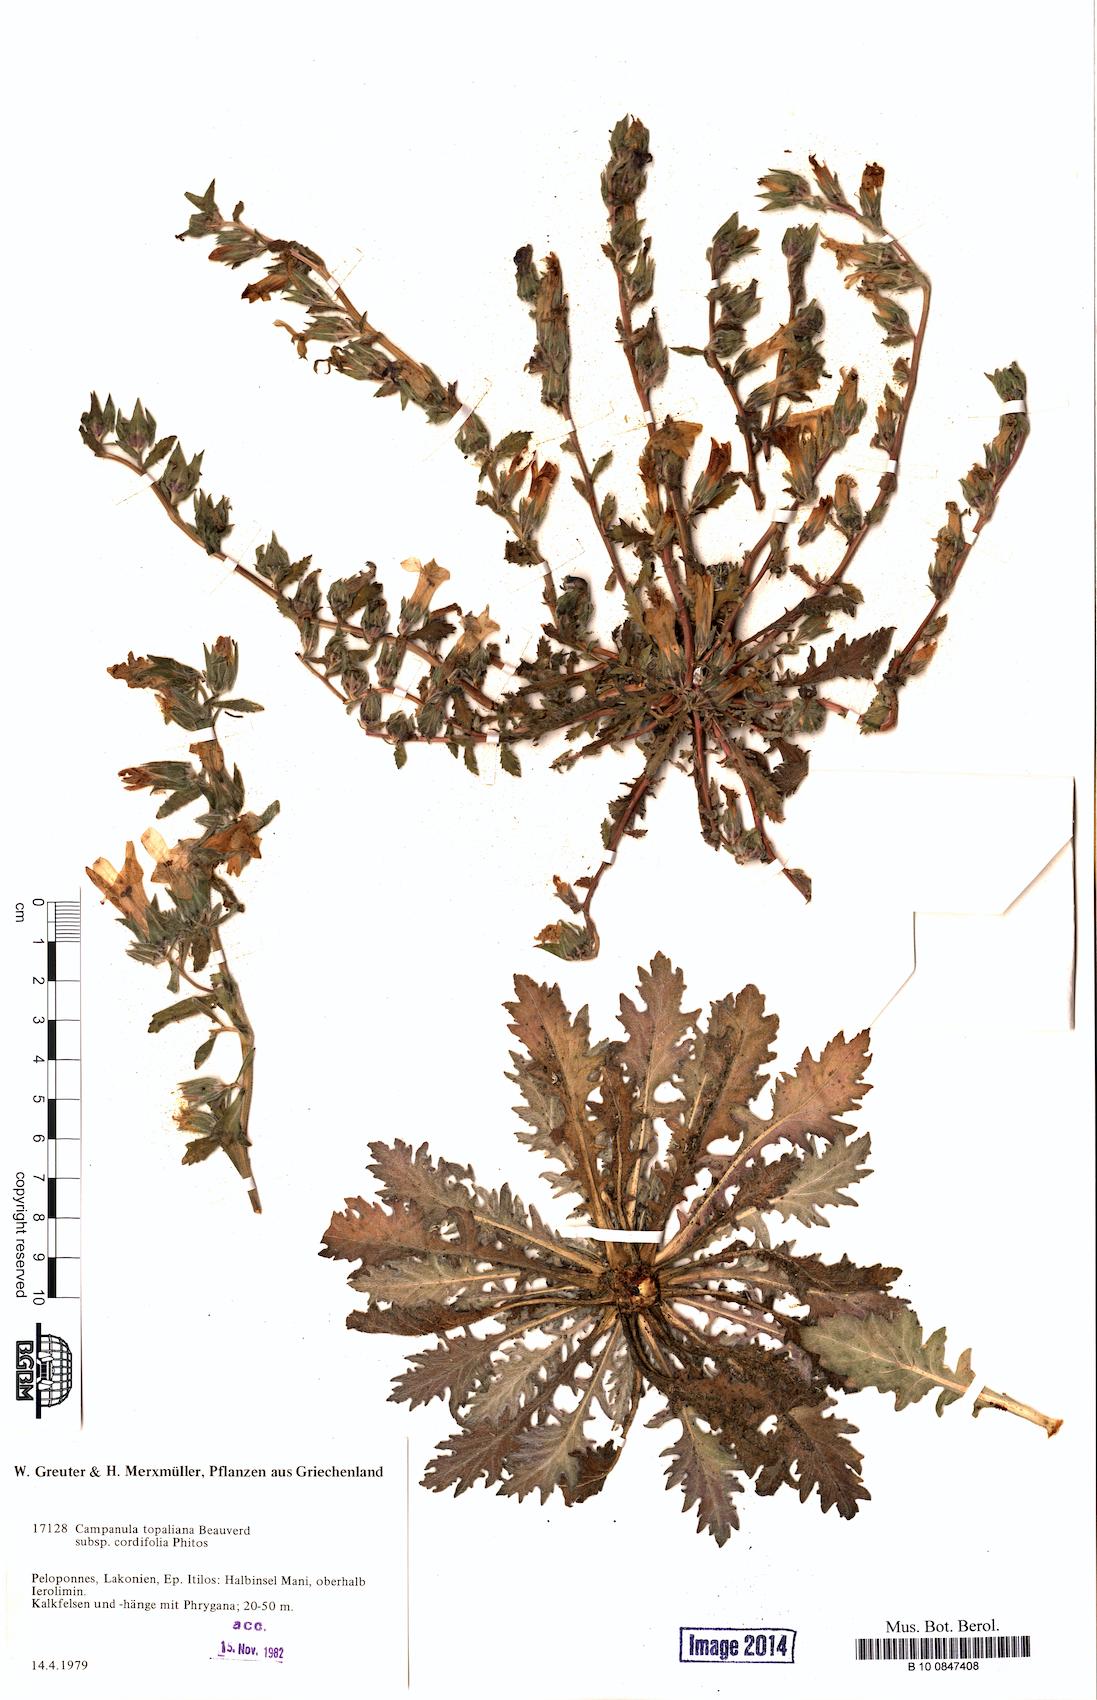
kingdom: Plantae
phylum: Tracheophyta
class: Magnoliopsida
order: Asterales
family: Campanulaceae
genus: Campanula
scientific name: Campanula topaliana
